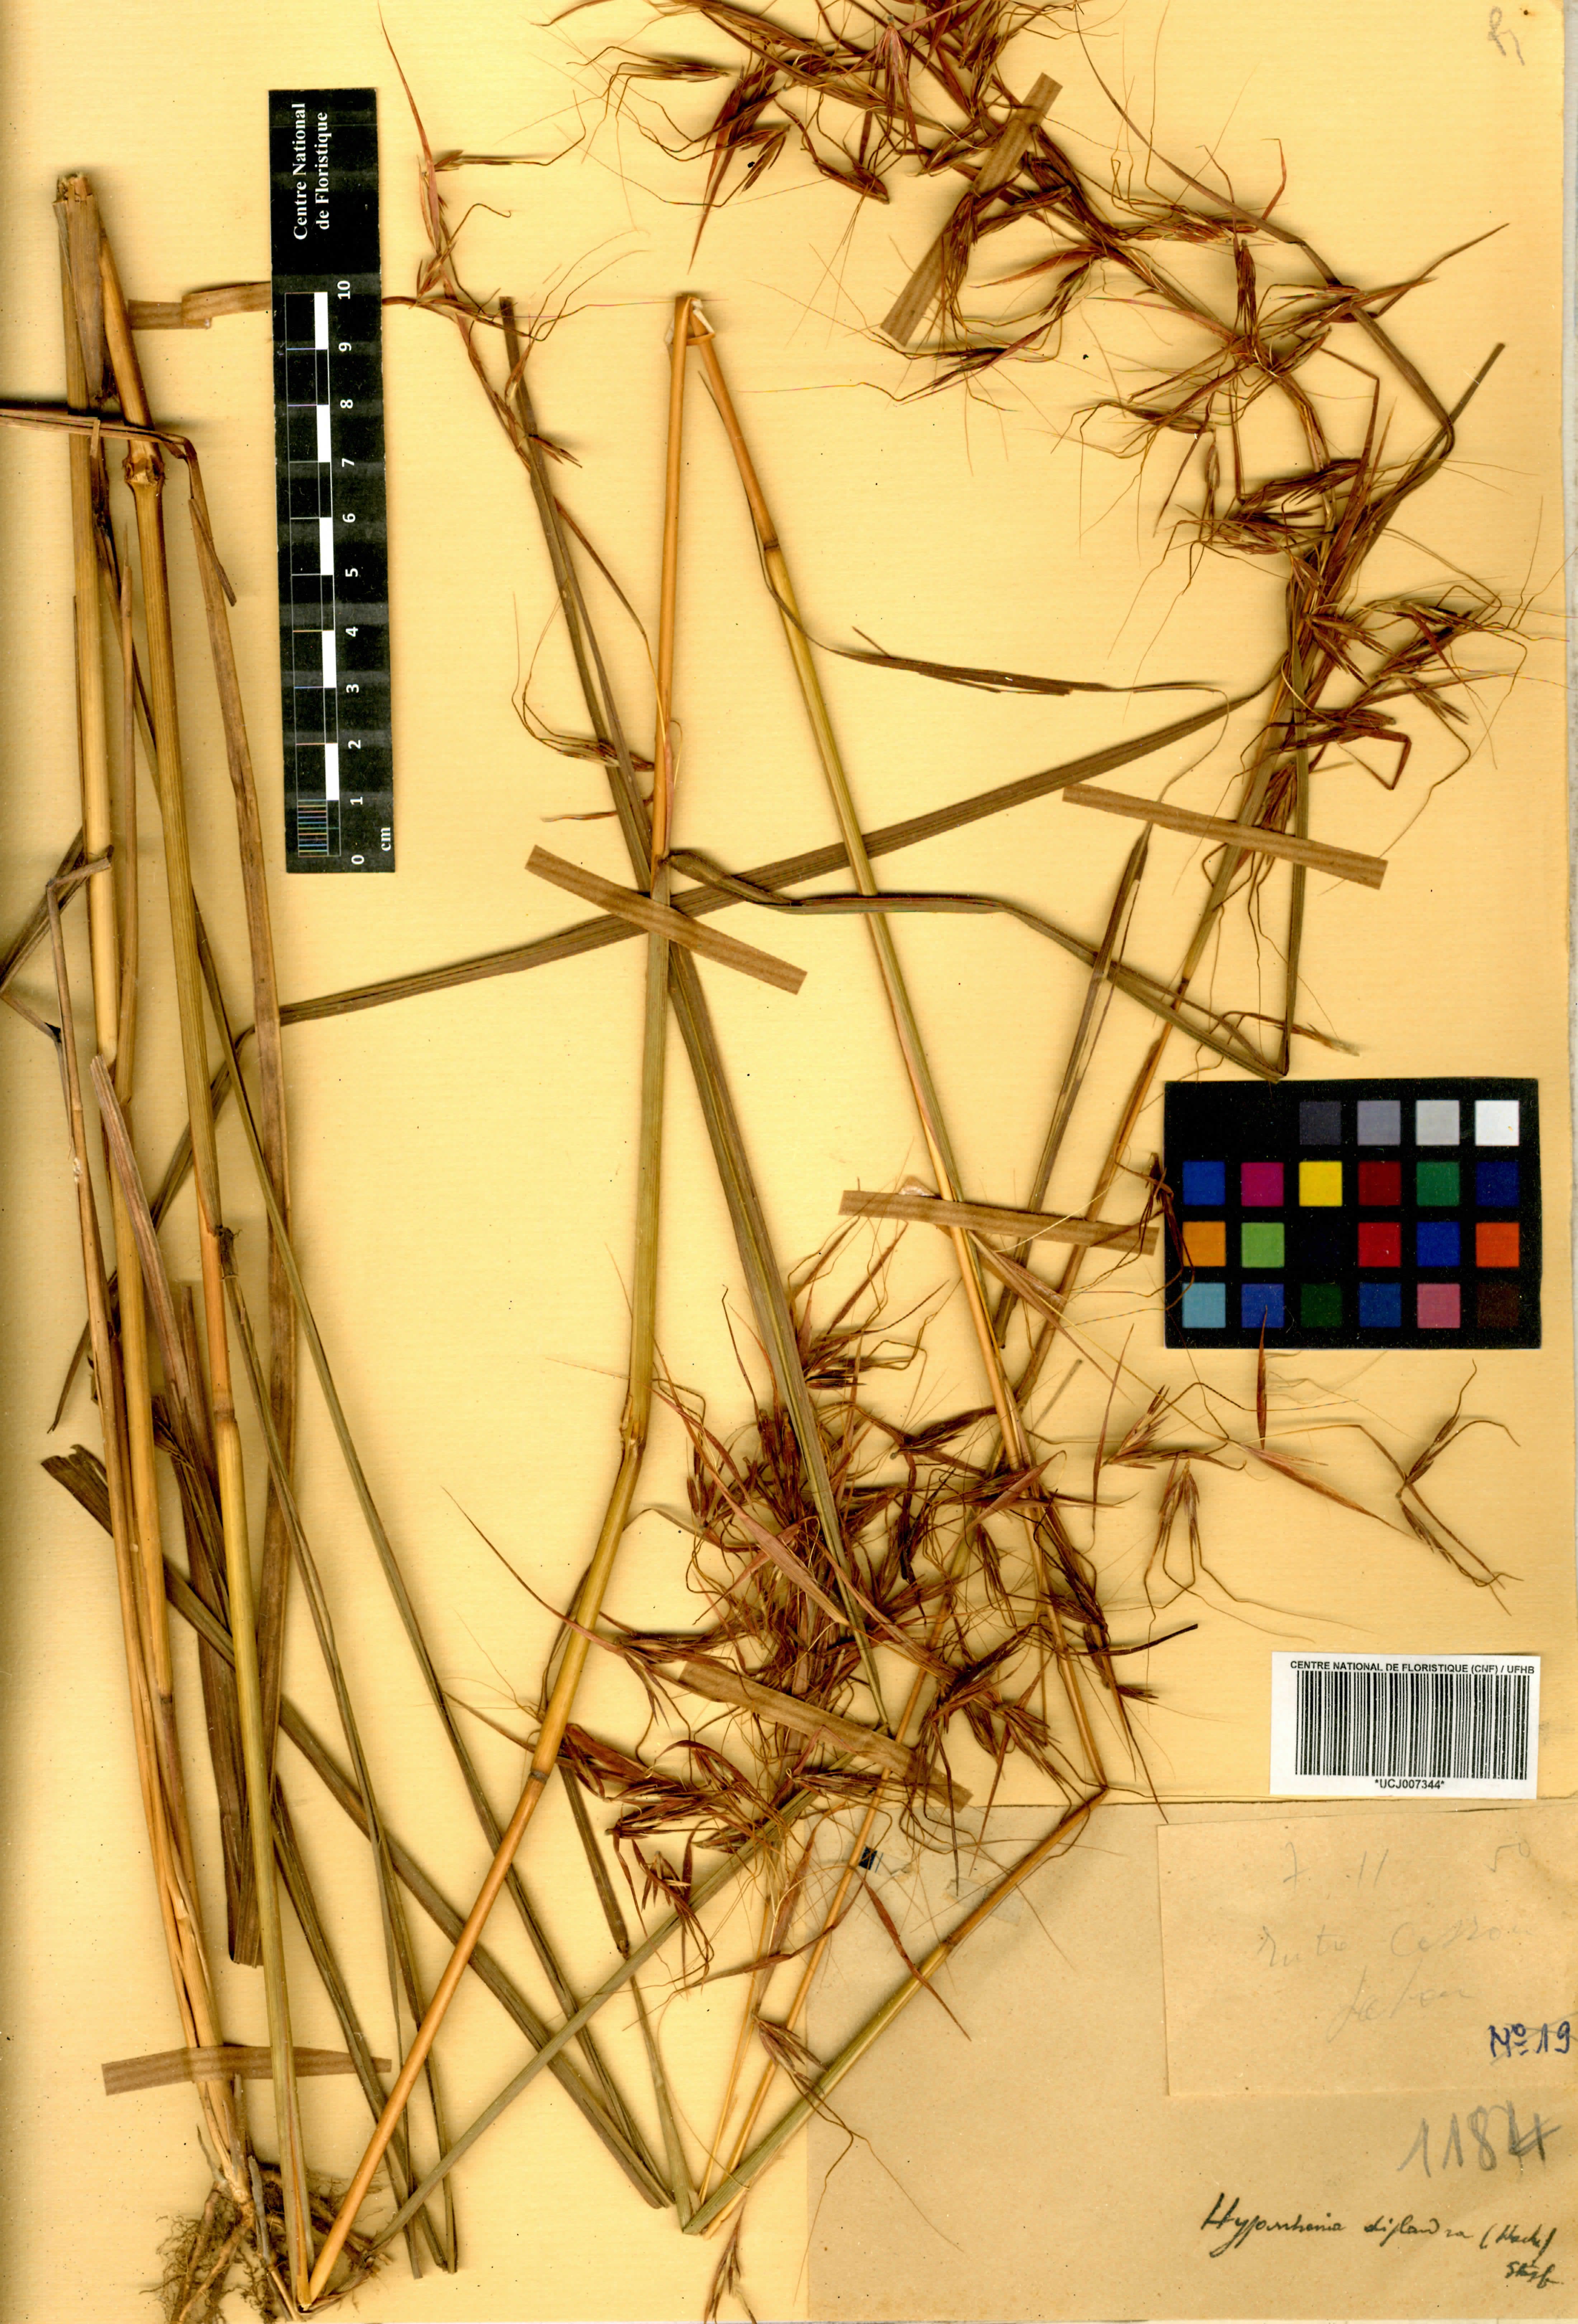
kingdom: Plantae
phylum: Tracheophyta
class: Liliopsida
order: Poales
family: Poaceae
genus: Hyperthelia
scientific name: Hyperthelia dissoluta
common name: Yellow thatching grass
